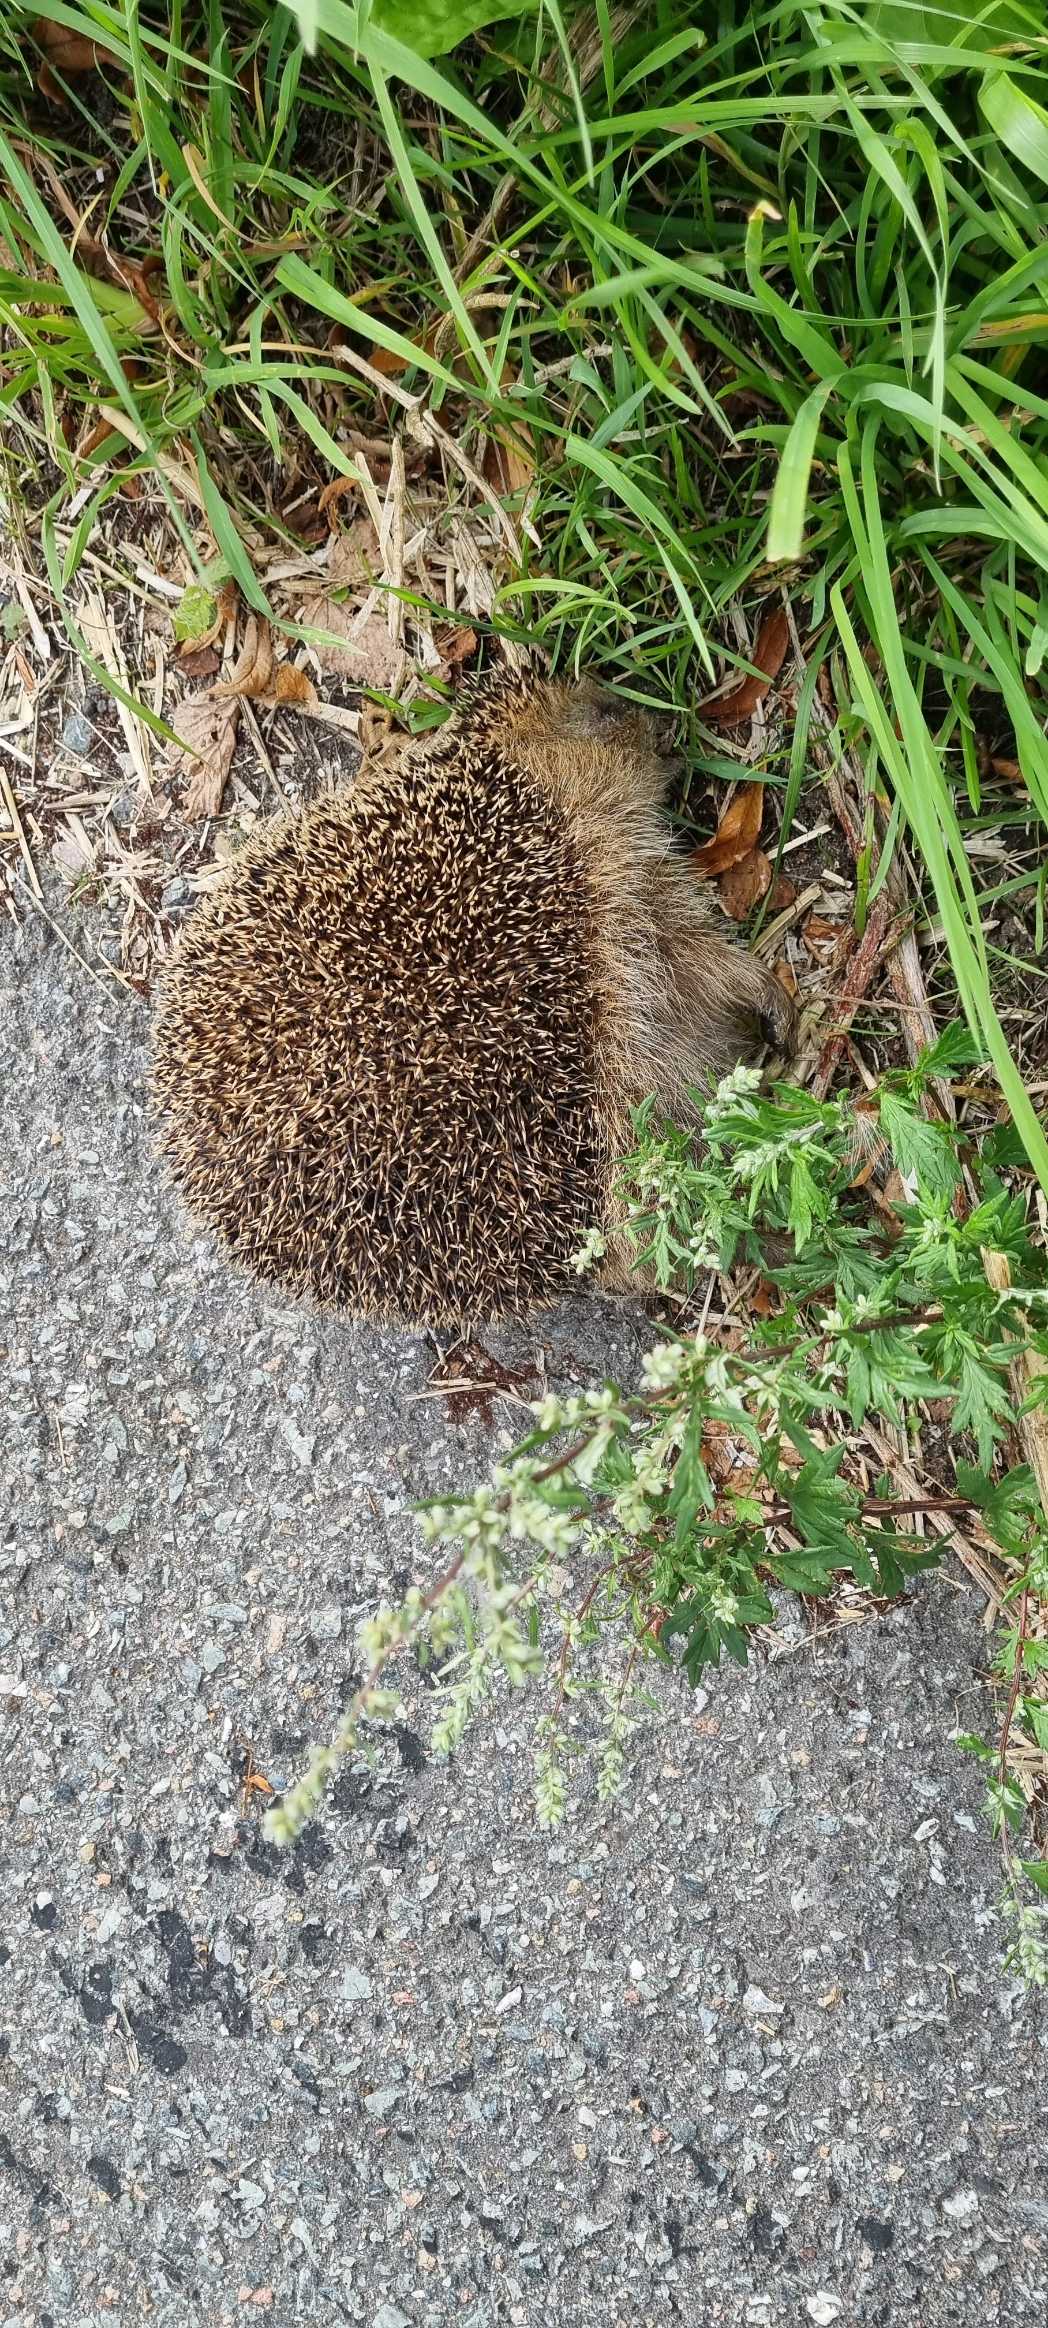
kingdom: Animalia
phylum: Chordata
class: Mammalia
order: Erinaceomorpha
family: Erinaceidae
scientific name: Erinaceidae
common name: Pindsvin
